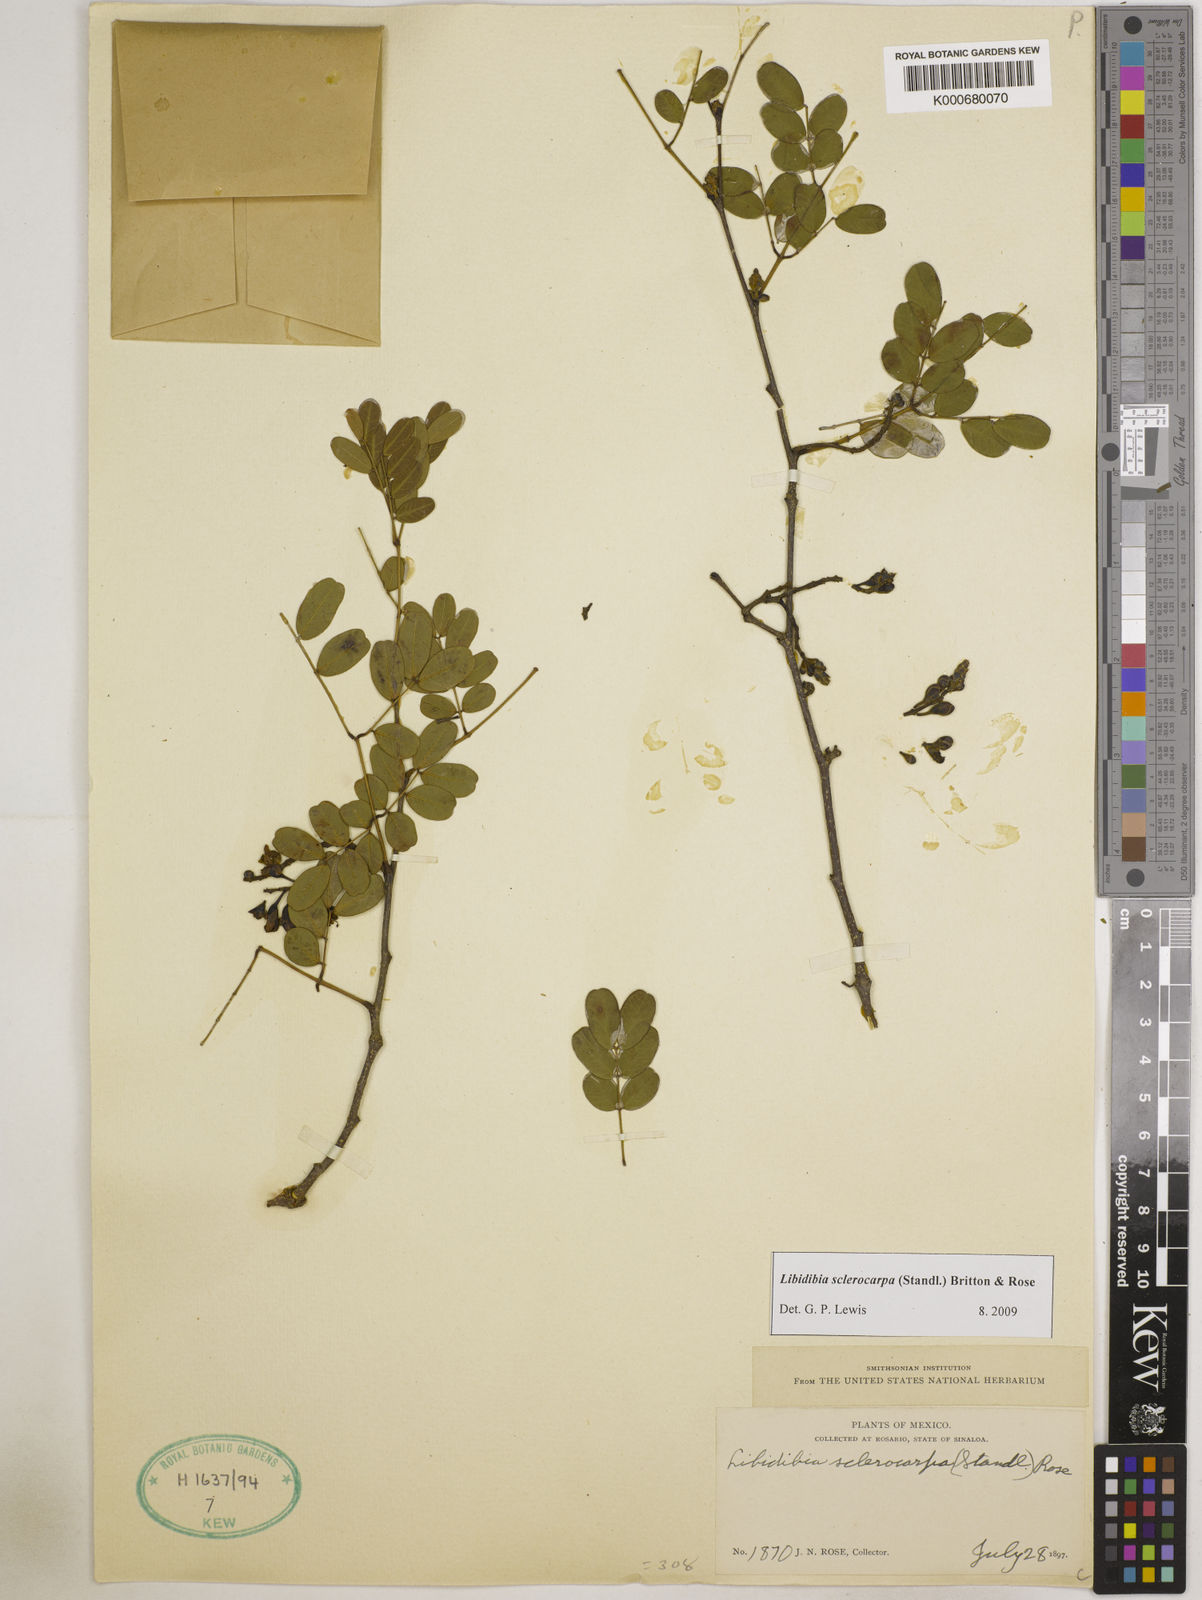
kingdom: Plantae
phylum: Tracheophyta
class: Magnoliopsida
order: Fabales
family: Fabaceae
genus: Libidibia
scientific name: Libidibia sclerocarpa
